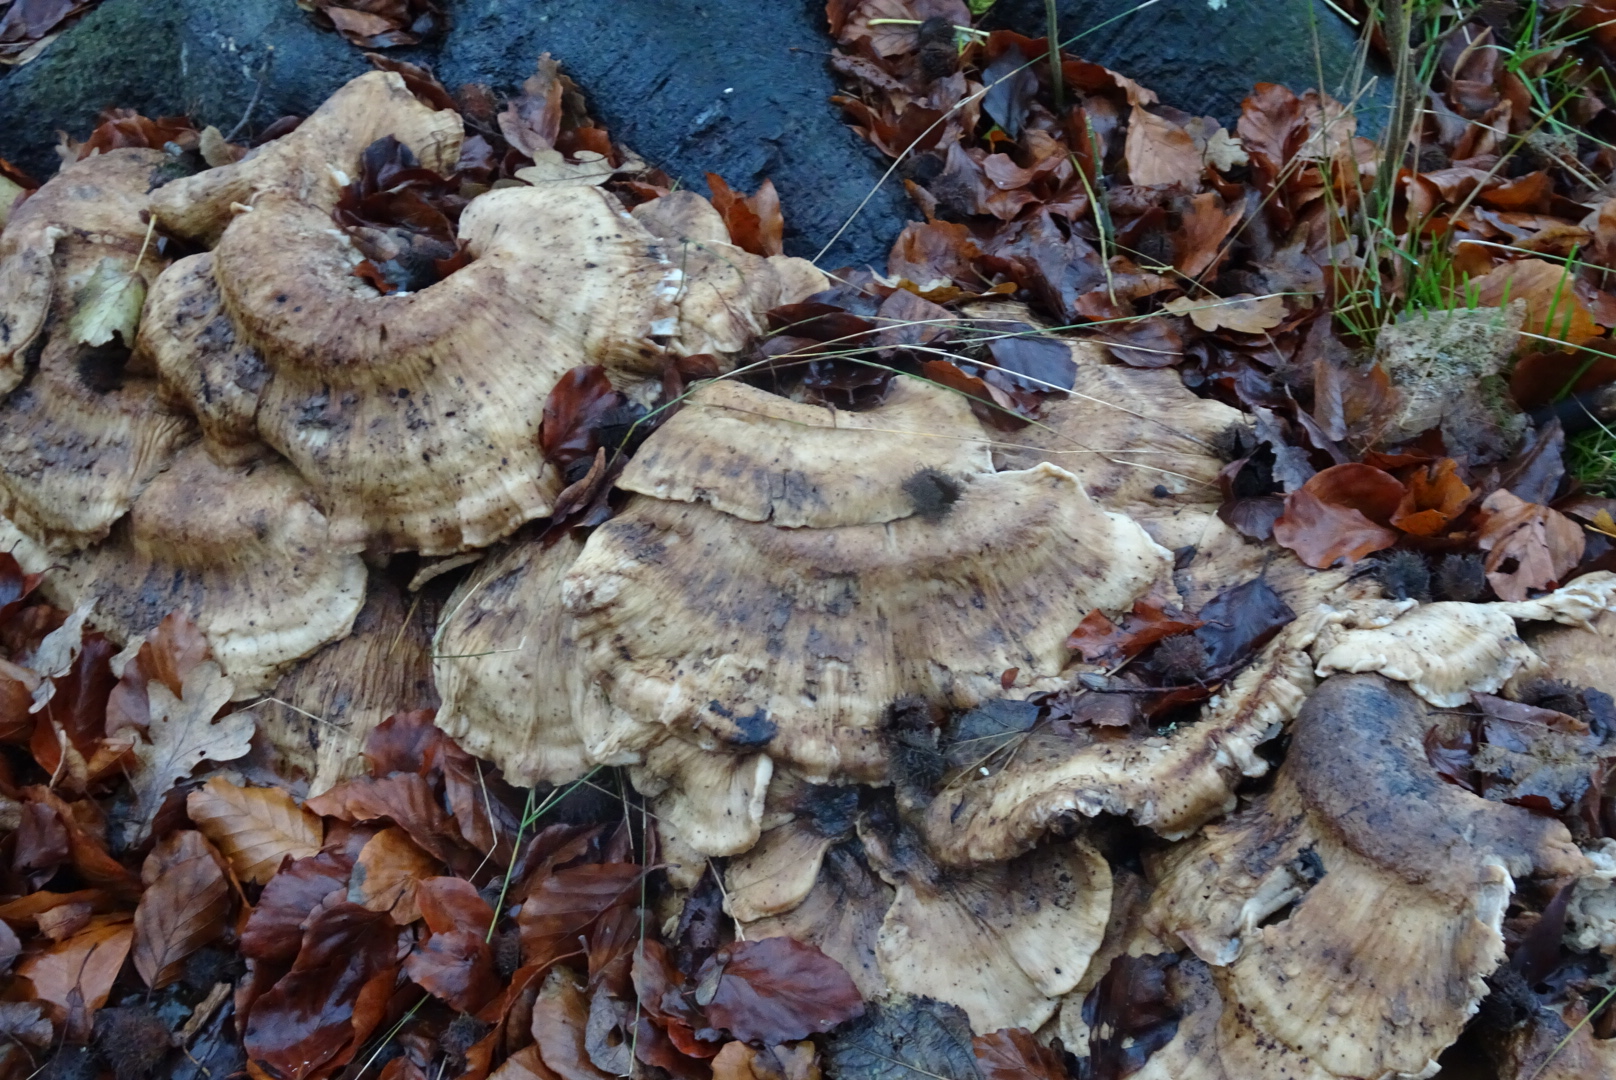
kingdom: Fungi
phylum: Basidiomycota
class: Agaricomycetes
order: Polyporales
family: Meripilaceae
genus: Meripilus
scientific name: Meripilus giganteus
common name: kæmpeporesvamp
